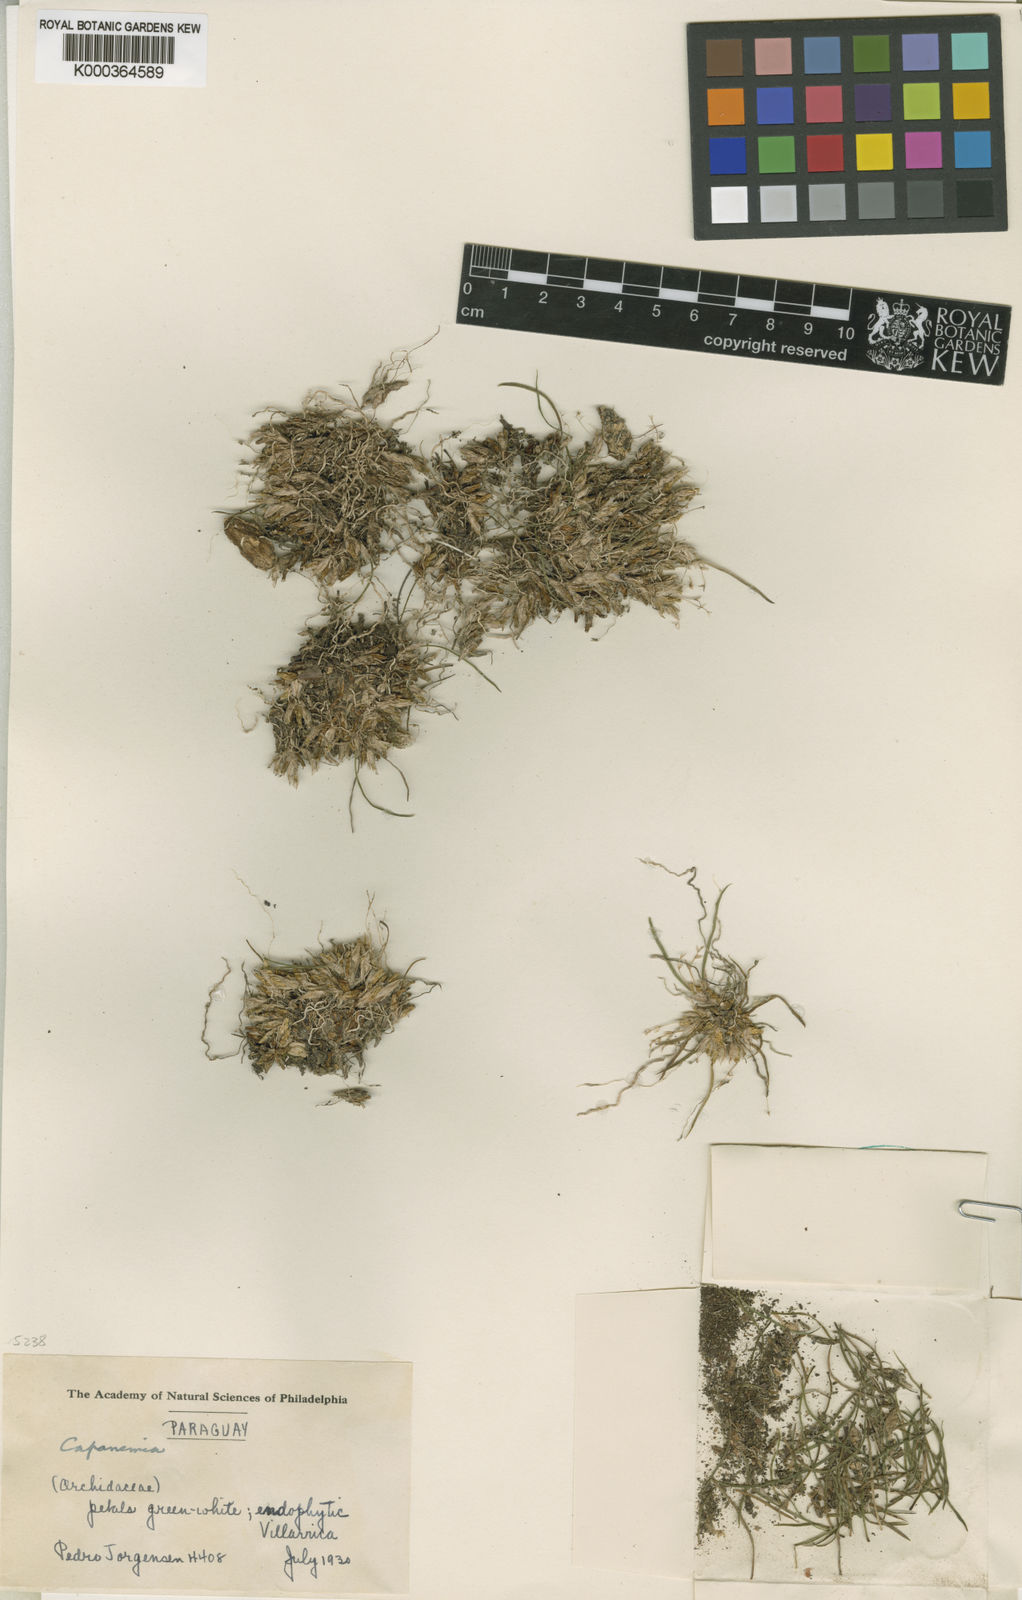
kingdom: Plantae
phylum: Tracheophyta
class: Liliopsida
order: Asparagales
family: Orchidaceae
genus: Capanemia
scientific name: Capanemia
